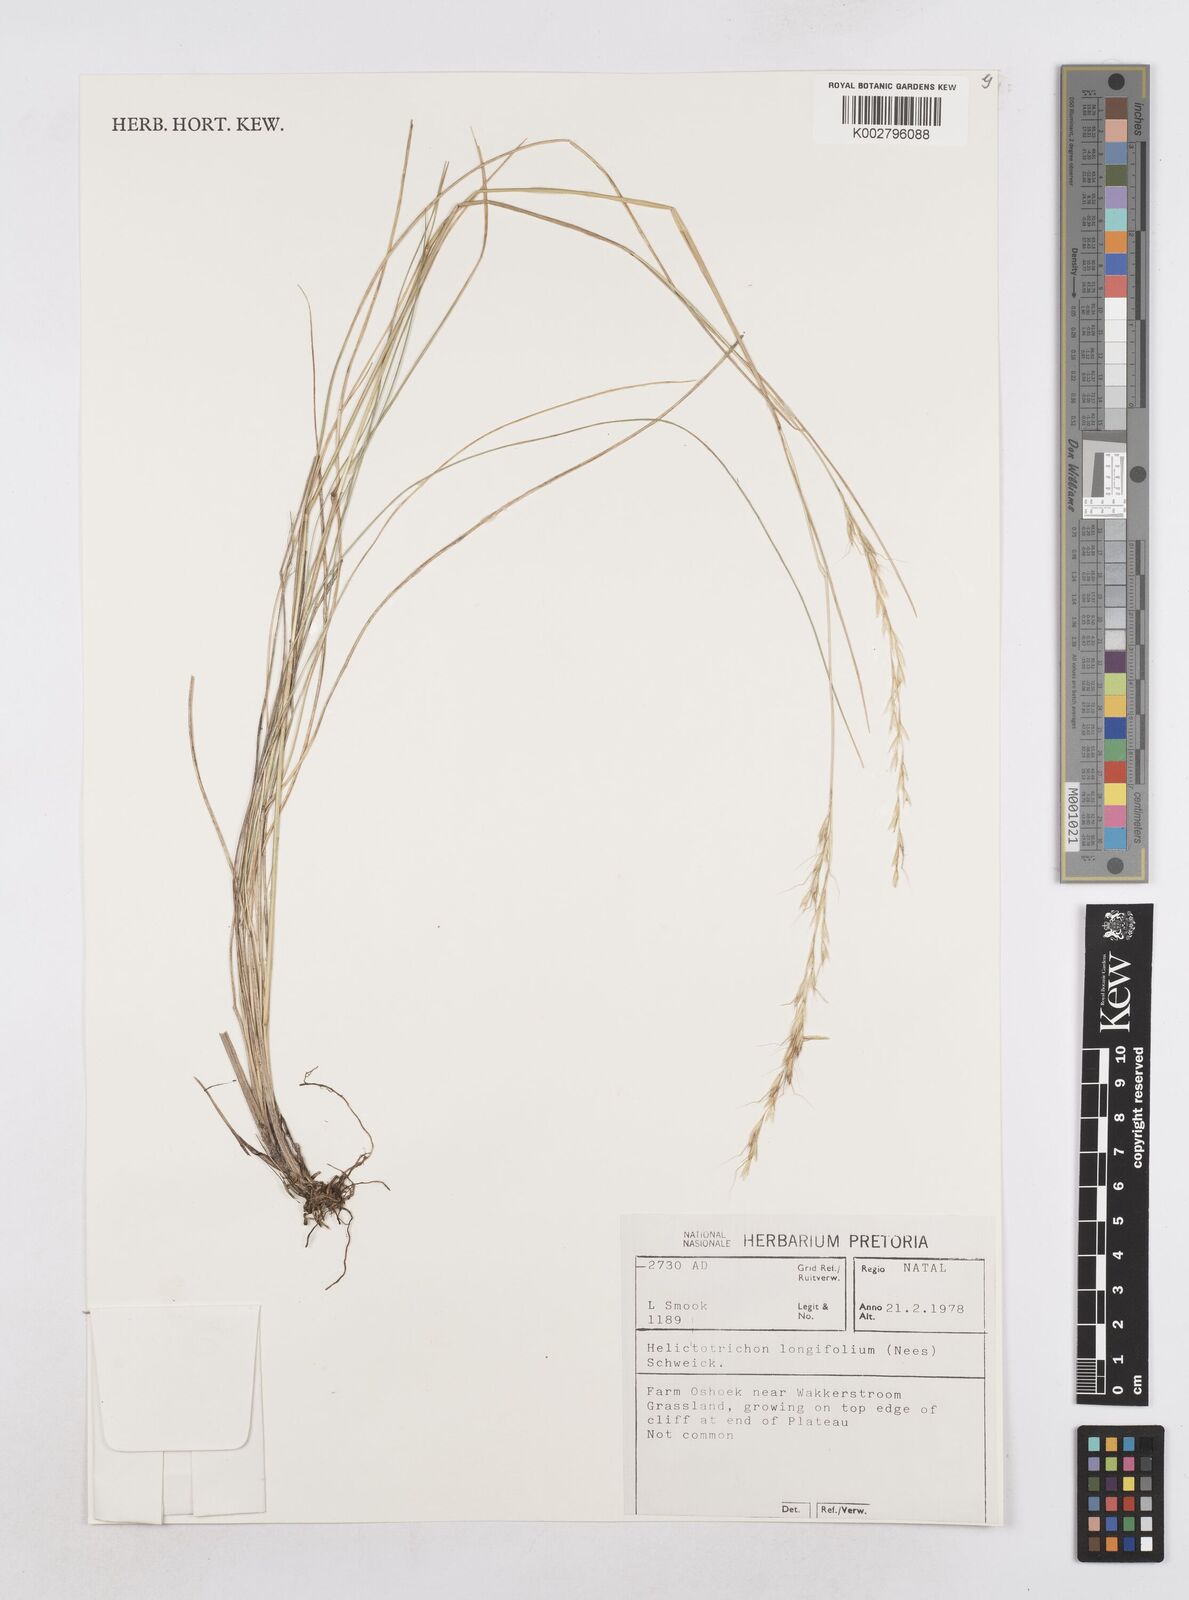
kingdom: Plantae
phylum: Tracheophyta
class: Liliopsida
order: Poales
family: Poaceae
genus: Trisetopsis
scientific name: Trisetopsis longifolia
